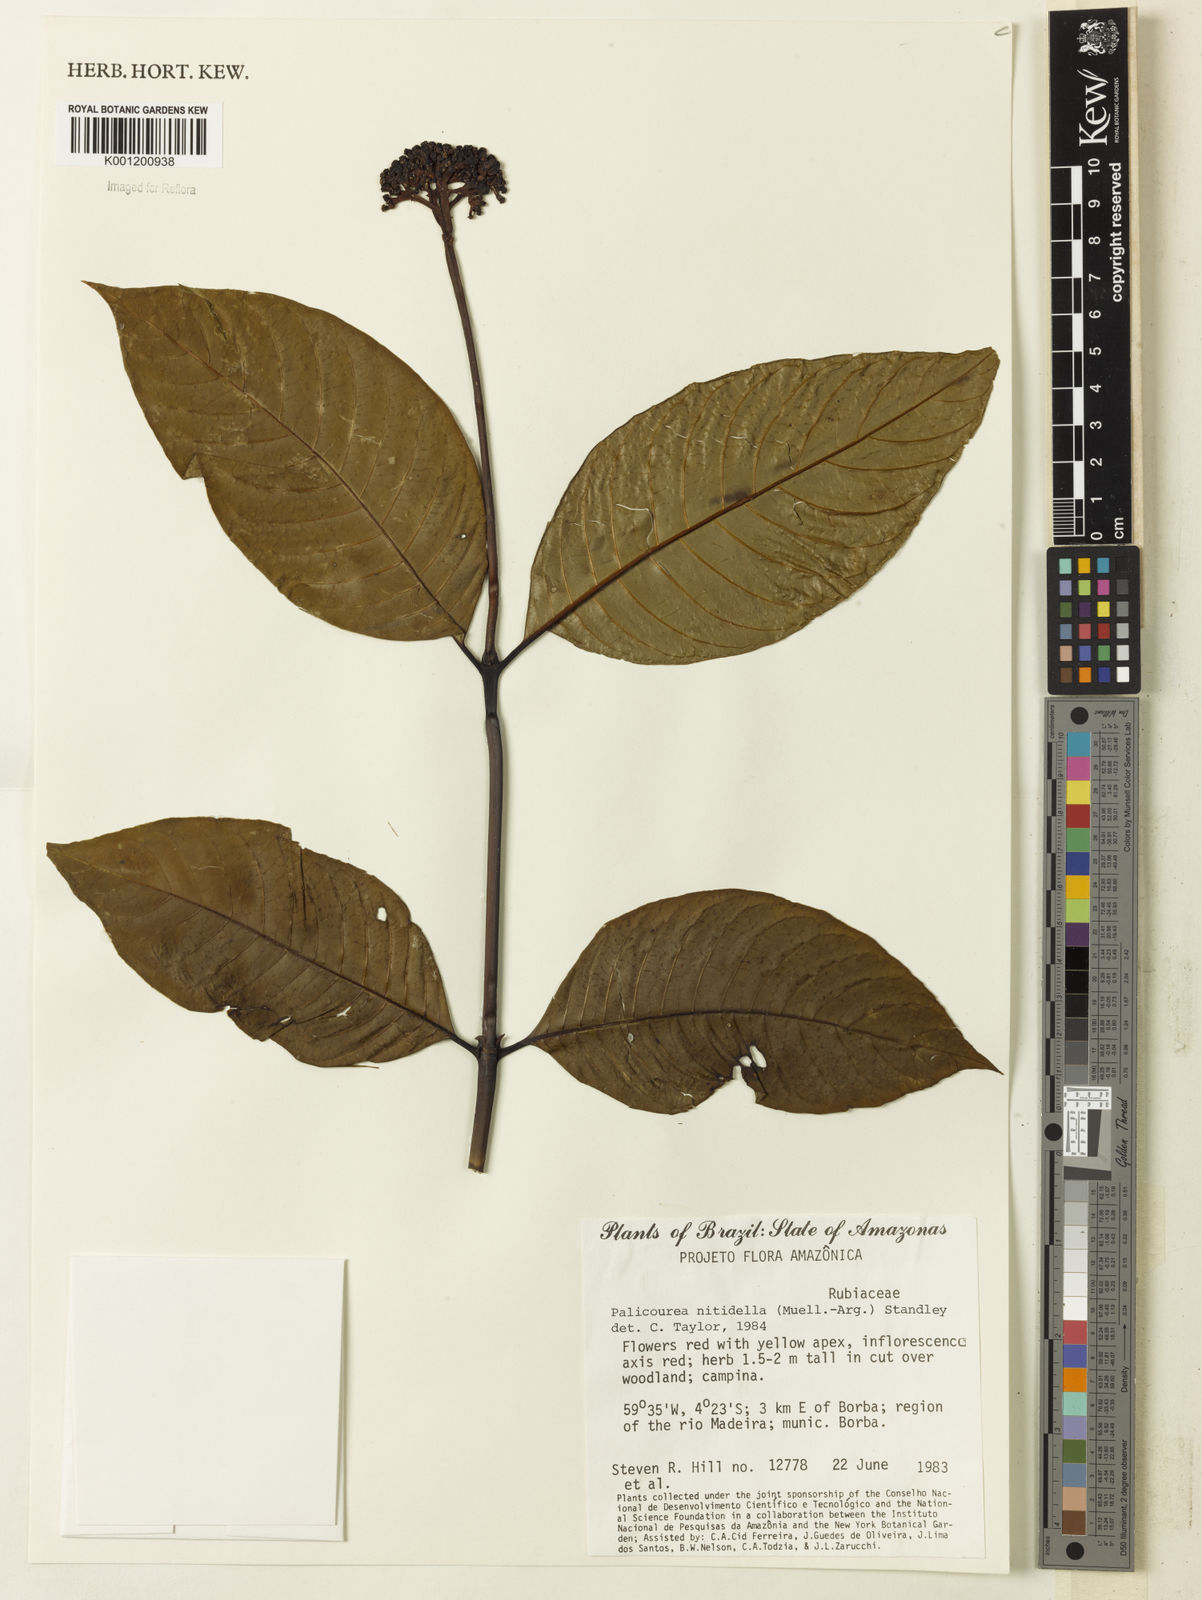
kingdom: Plantae
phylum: Tracheophyta
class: Magnoliopsida
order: Gentianales
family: Rubiaceae
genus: Palicourea
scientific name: Palicourea
